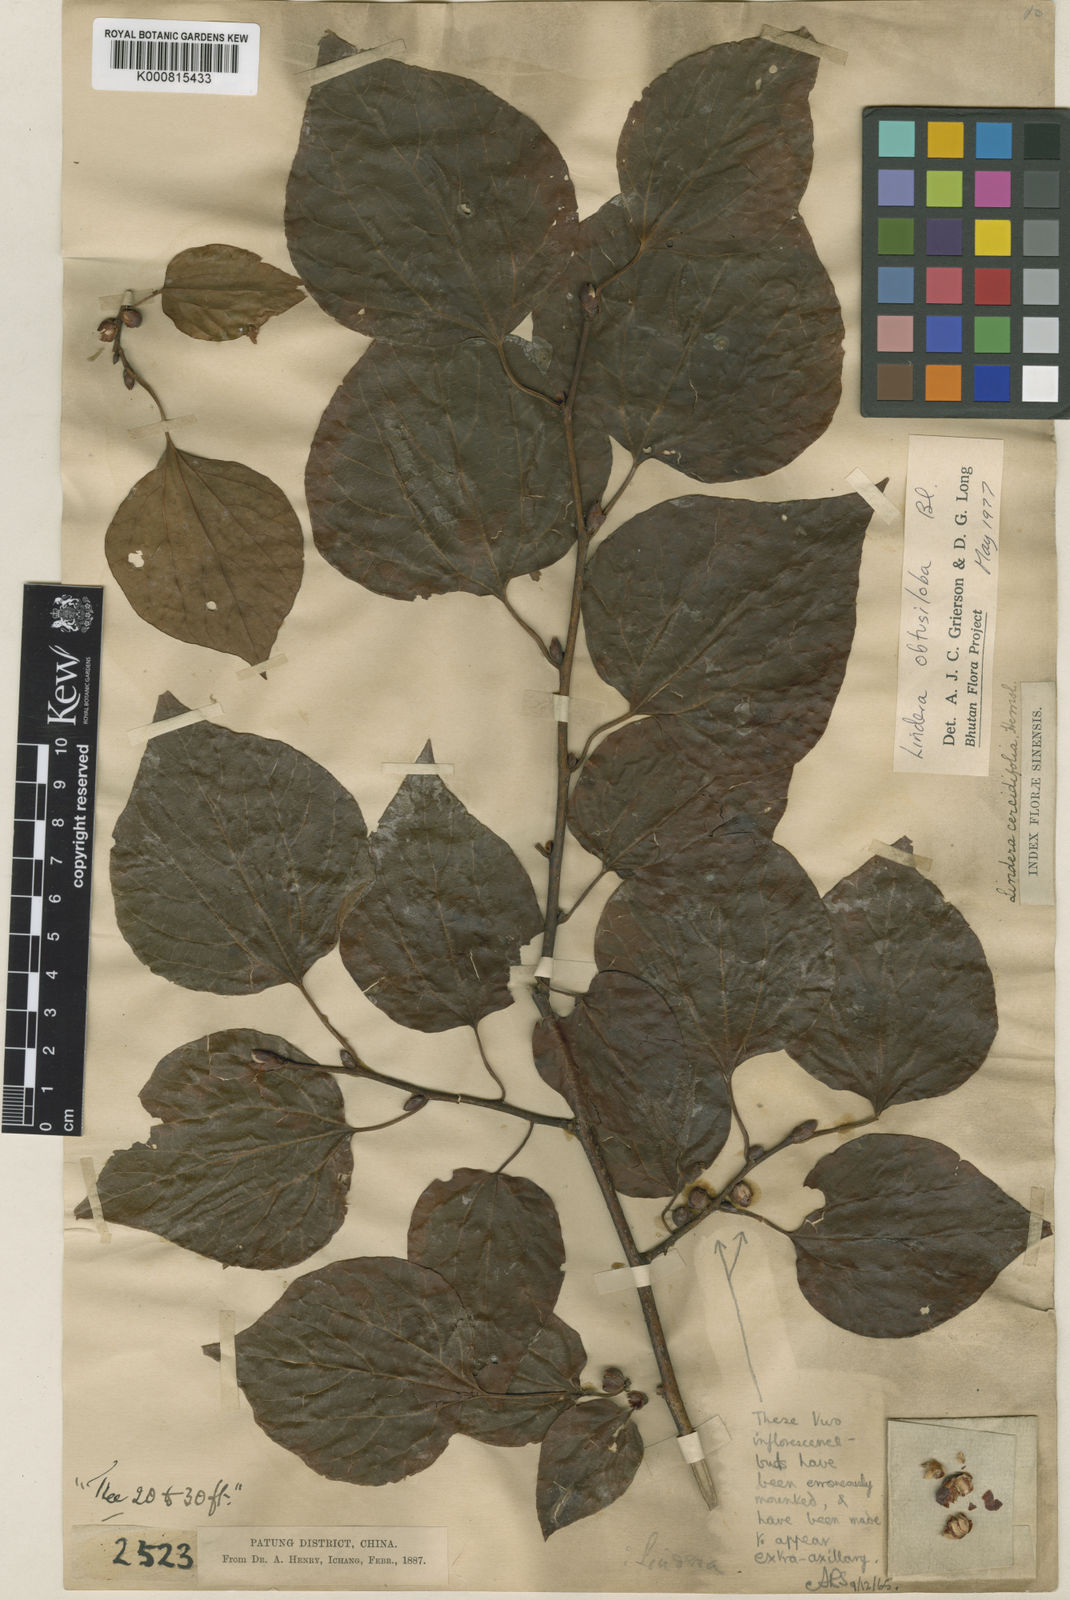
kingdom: Plantae
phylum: Tracheophyta
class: Magnoliopsida
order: Laurales
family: Lauraceae
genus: Lindera
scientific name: Lindera obtusiloba
